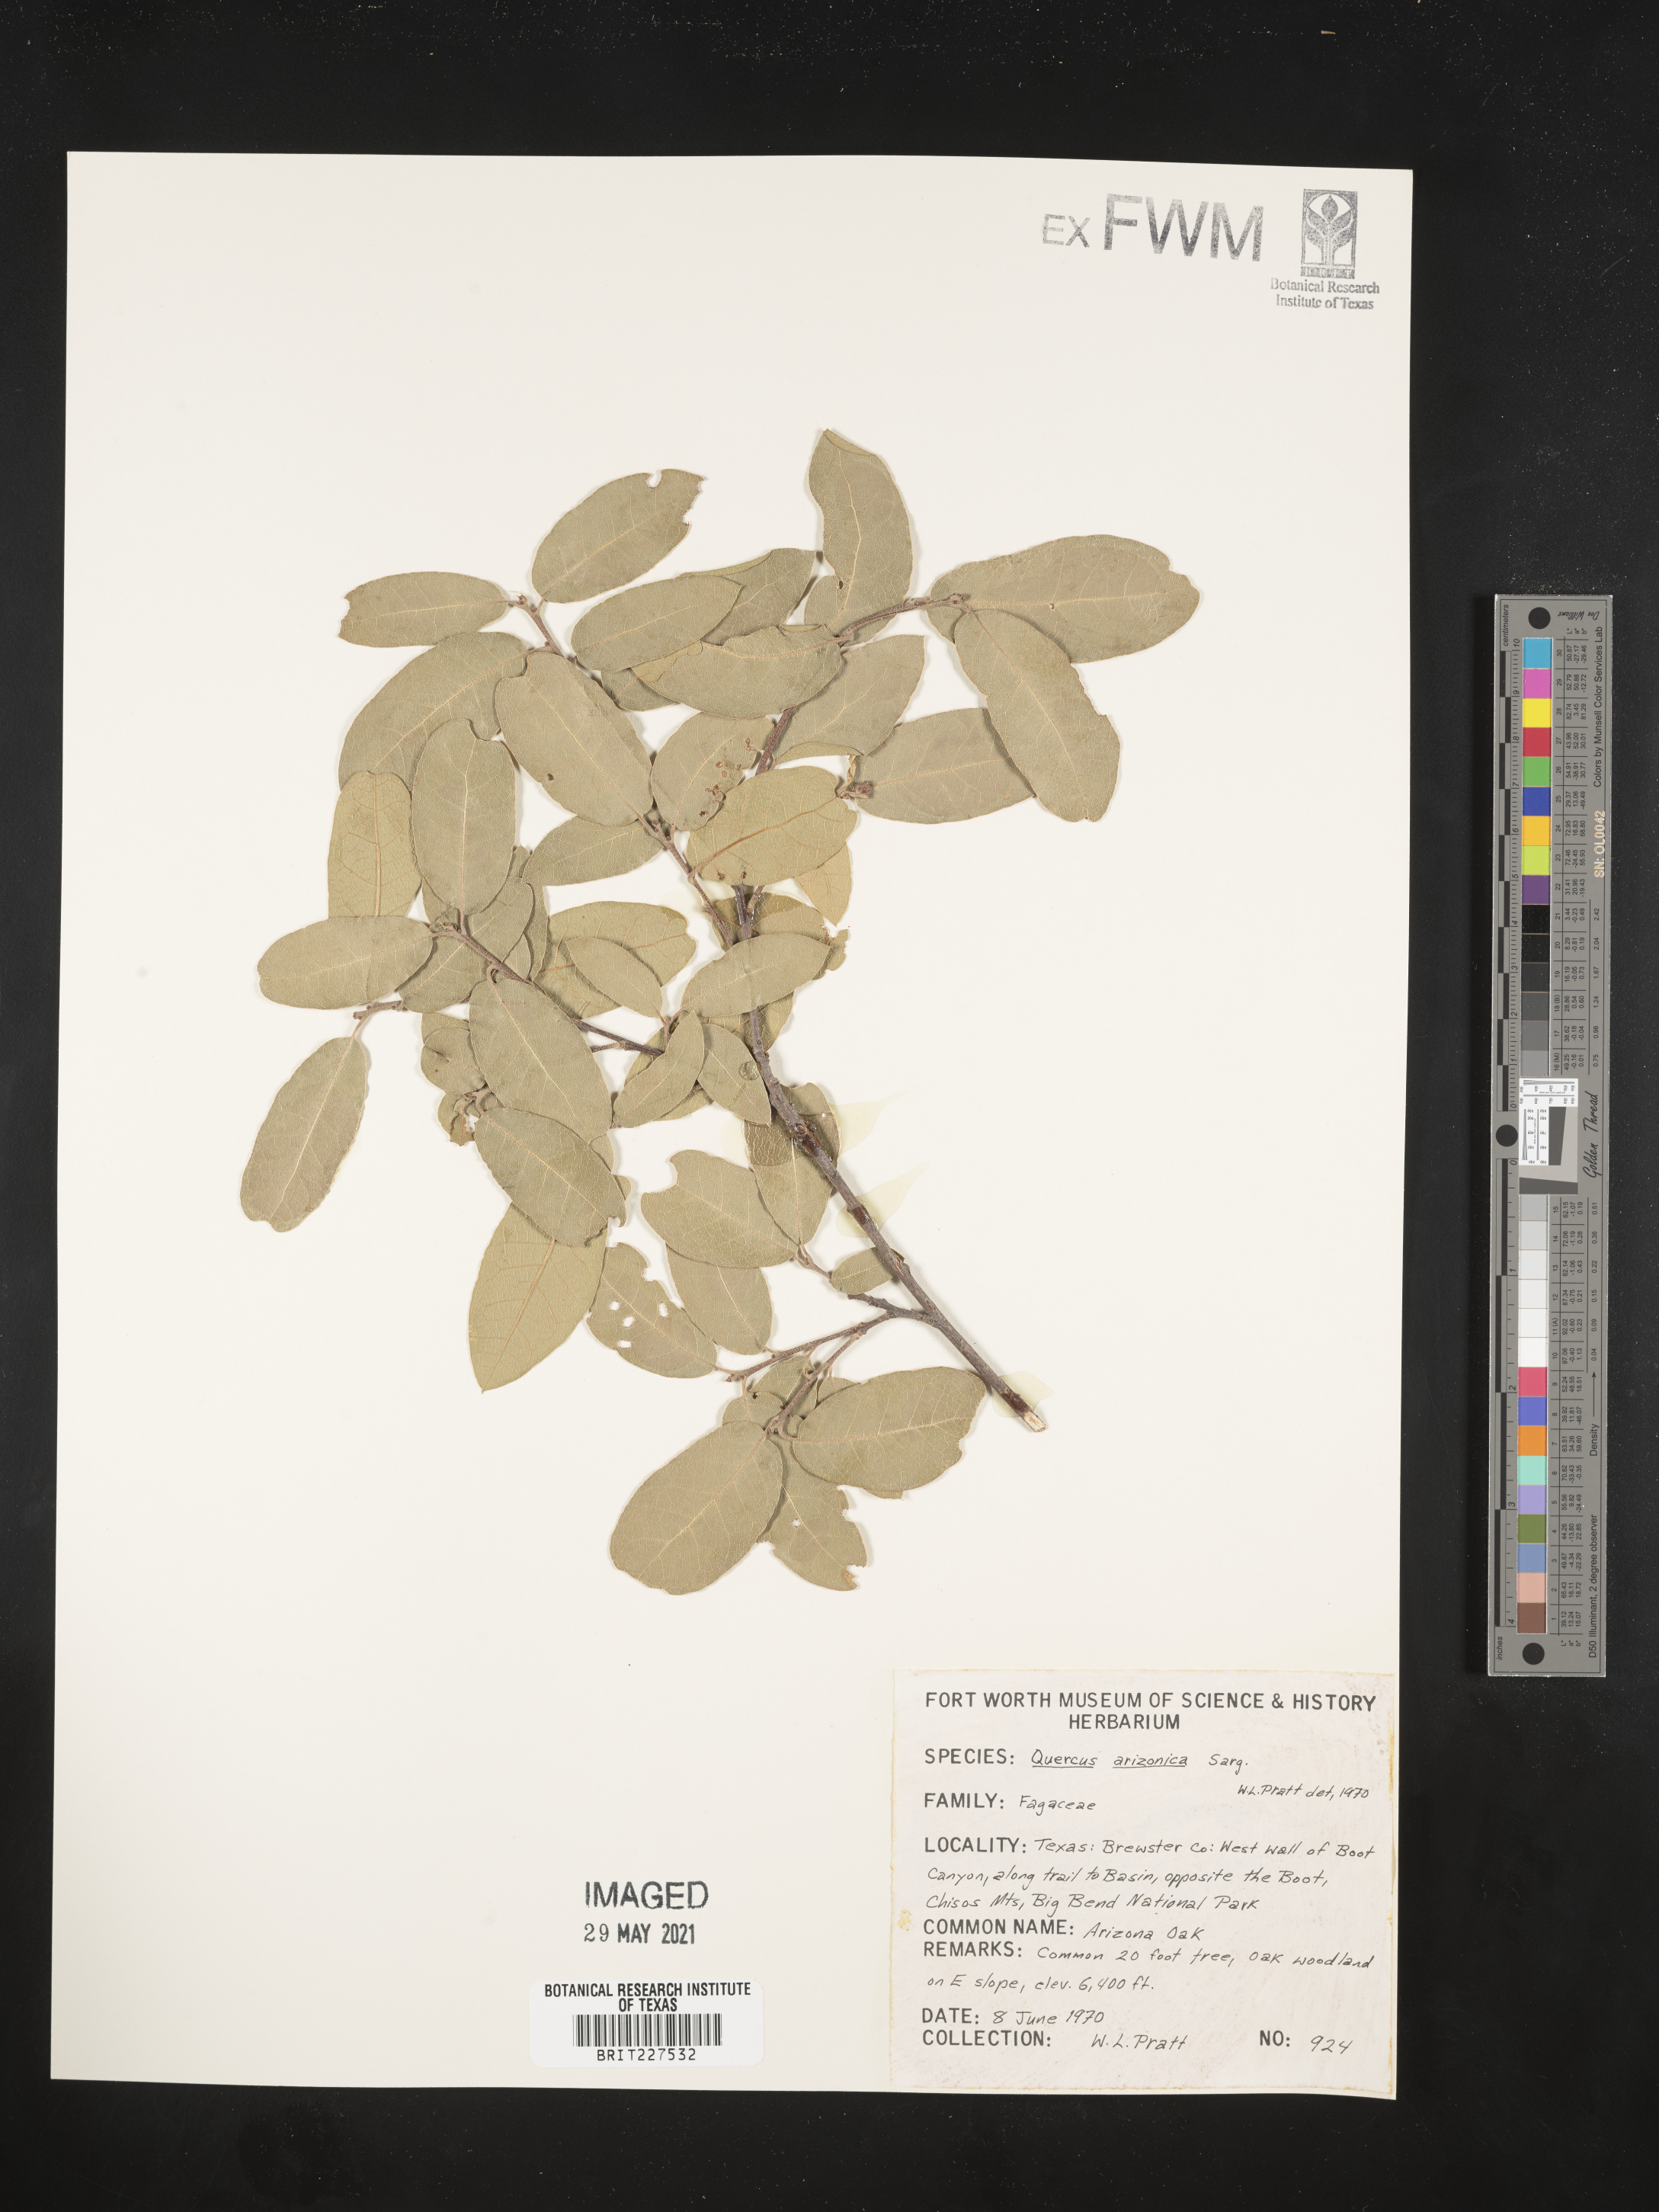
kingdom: Plantae
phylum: Tracheophyta
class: Magnoliopsida
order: Fagales
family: Fagaceae
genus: Quercus
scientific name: Quercus arizonica
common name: Arizona white oak
